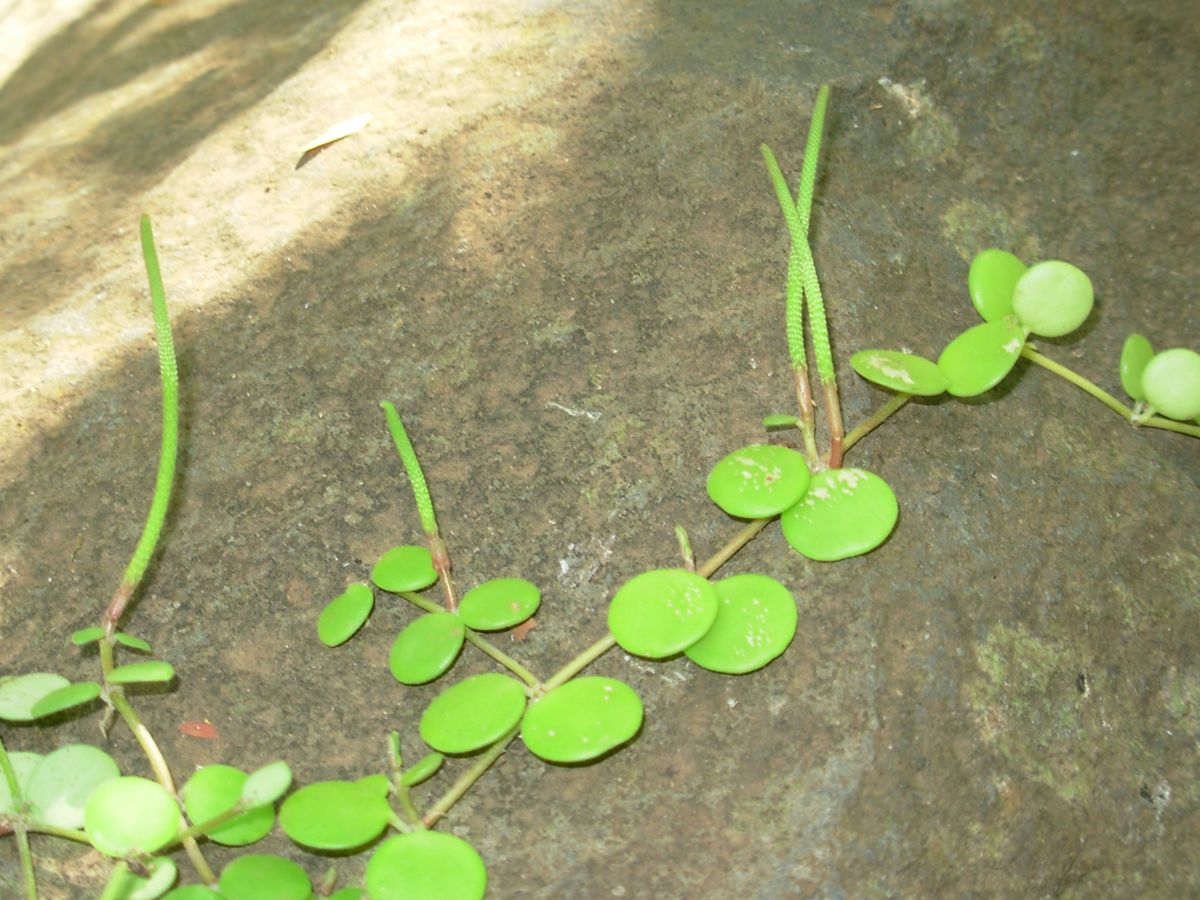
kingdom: Plantae
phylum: Tracheophyta
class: Magnoliopsida
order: Piperales
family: Piperaceae
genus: Peperomia
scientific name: Peperomia cyclophylla
